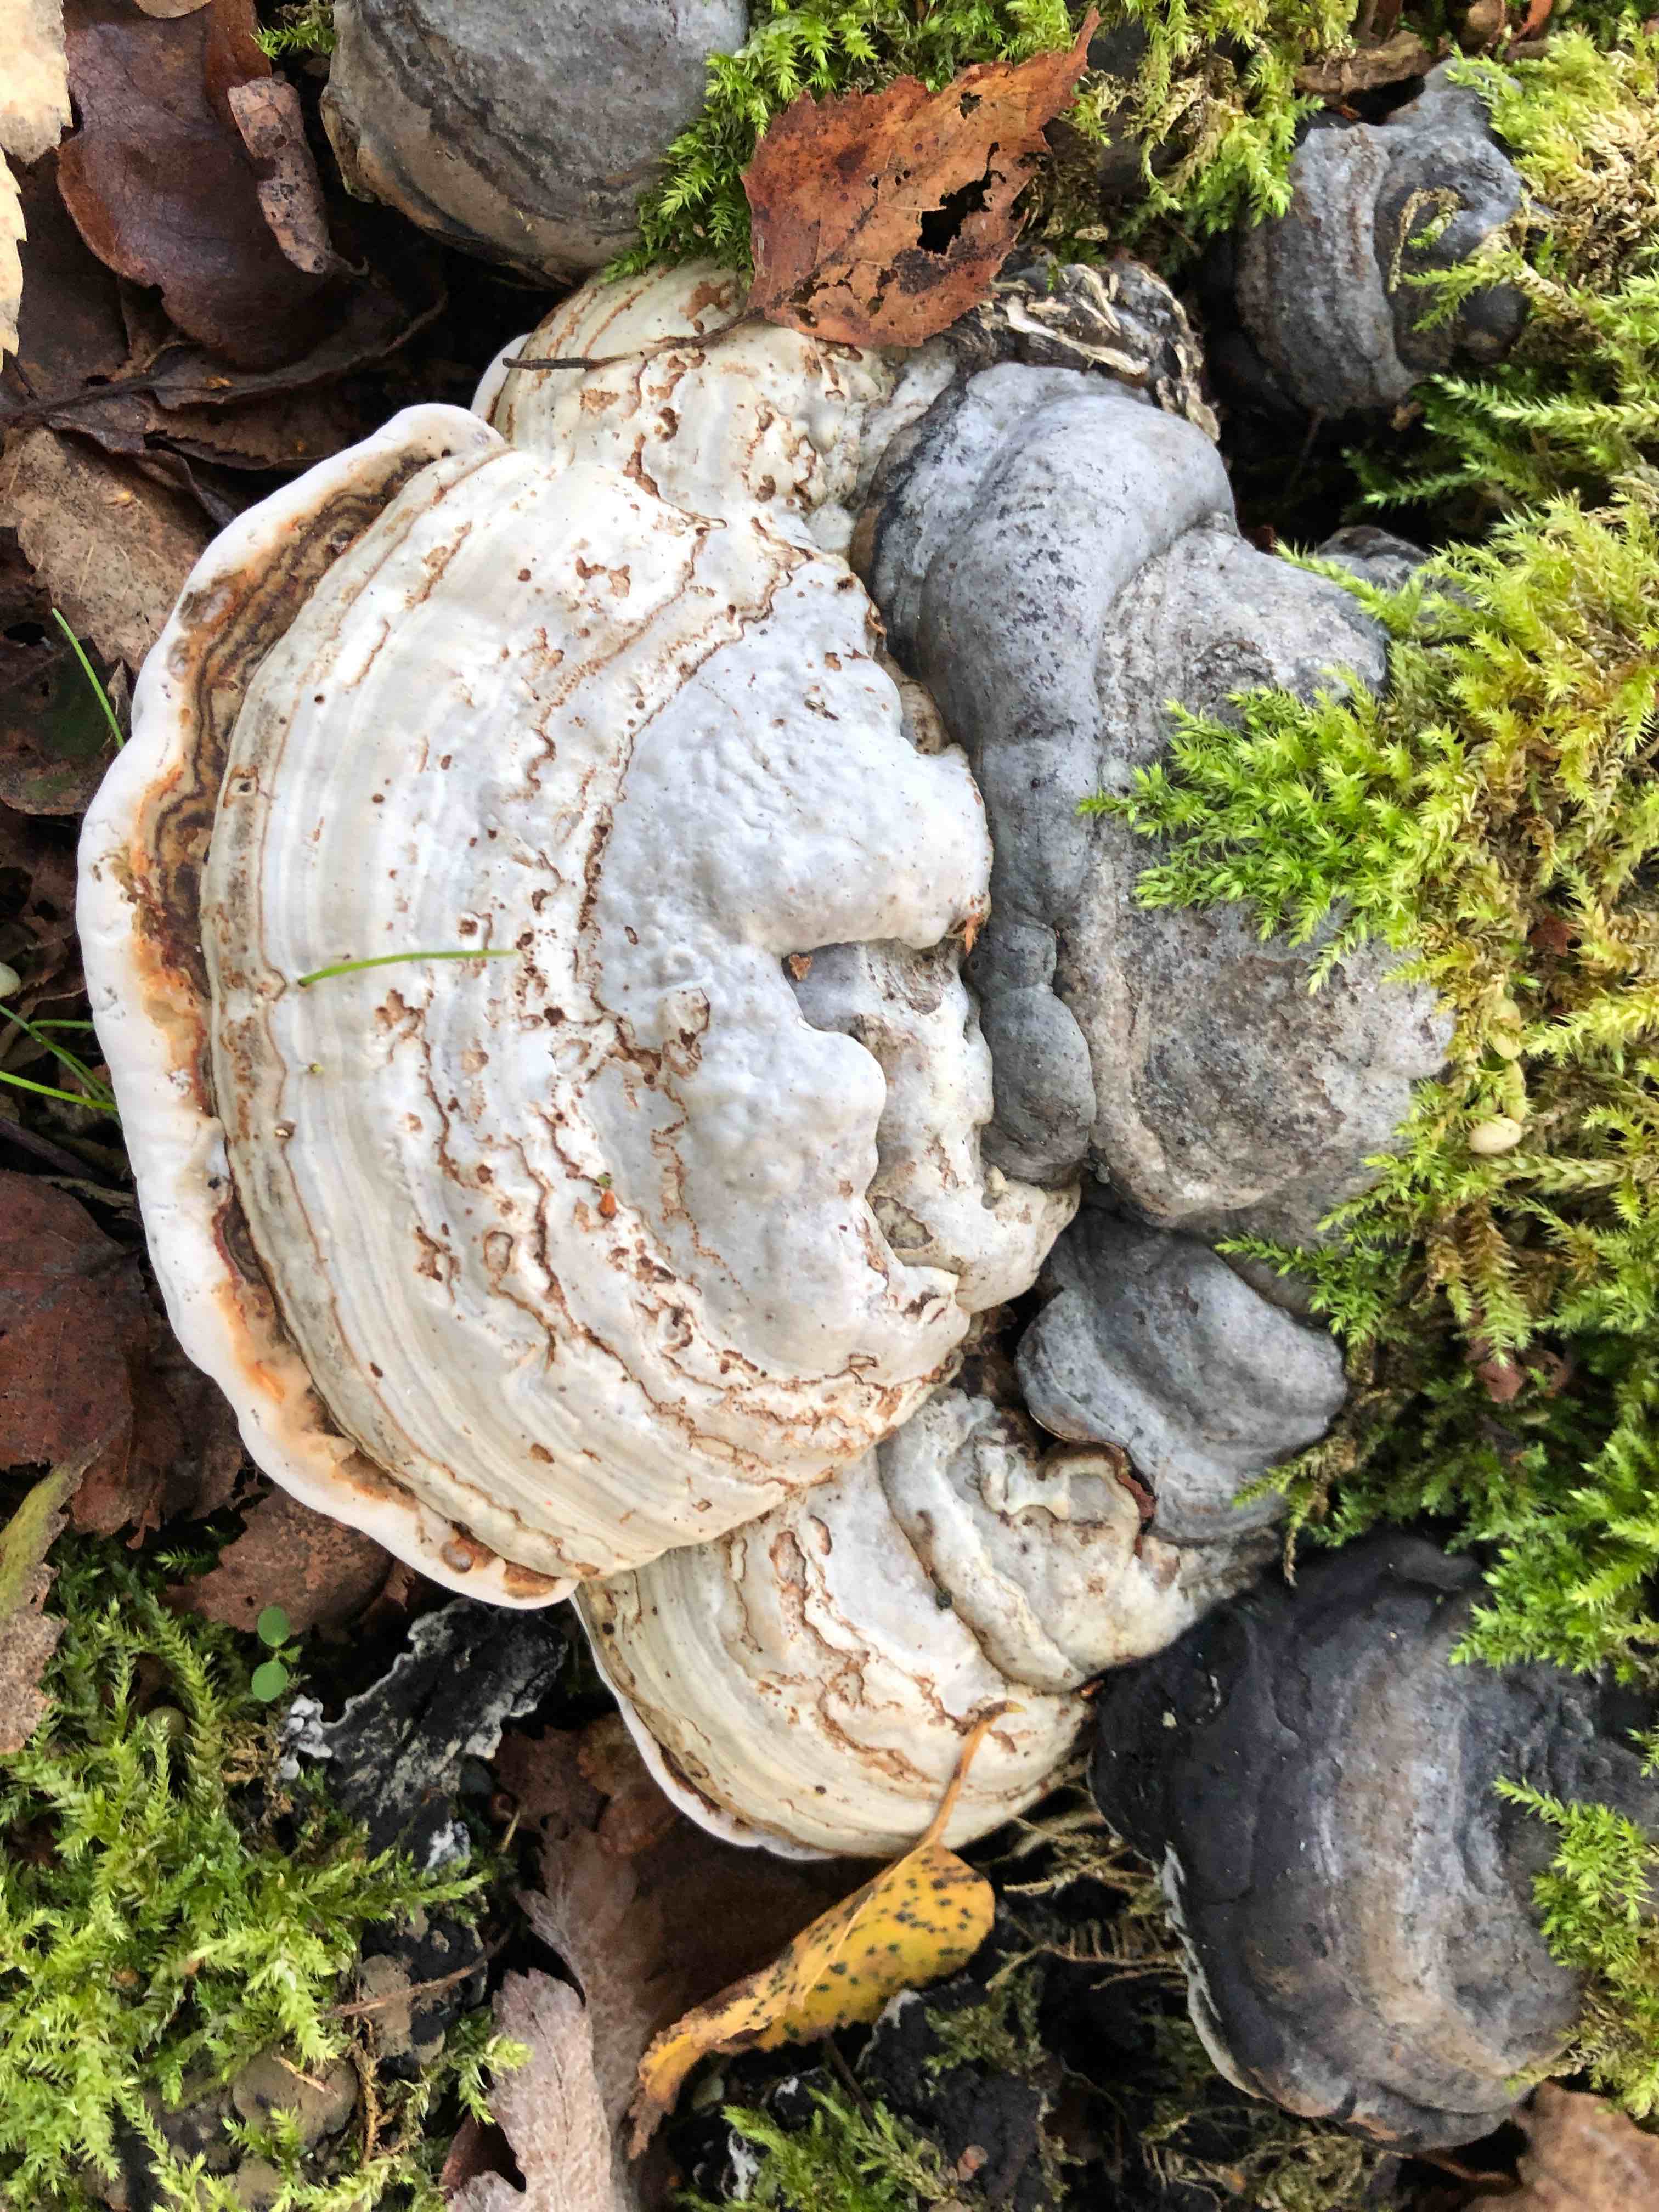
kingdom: Fungi
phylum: Basidiomycota
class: Agaricomycetes
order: Polyporales
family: Polyporaceae
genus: Fomes
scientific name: Fomes fomentarius
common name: tøndersvamp
